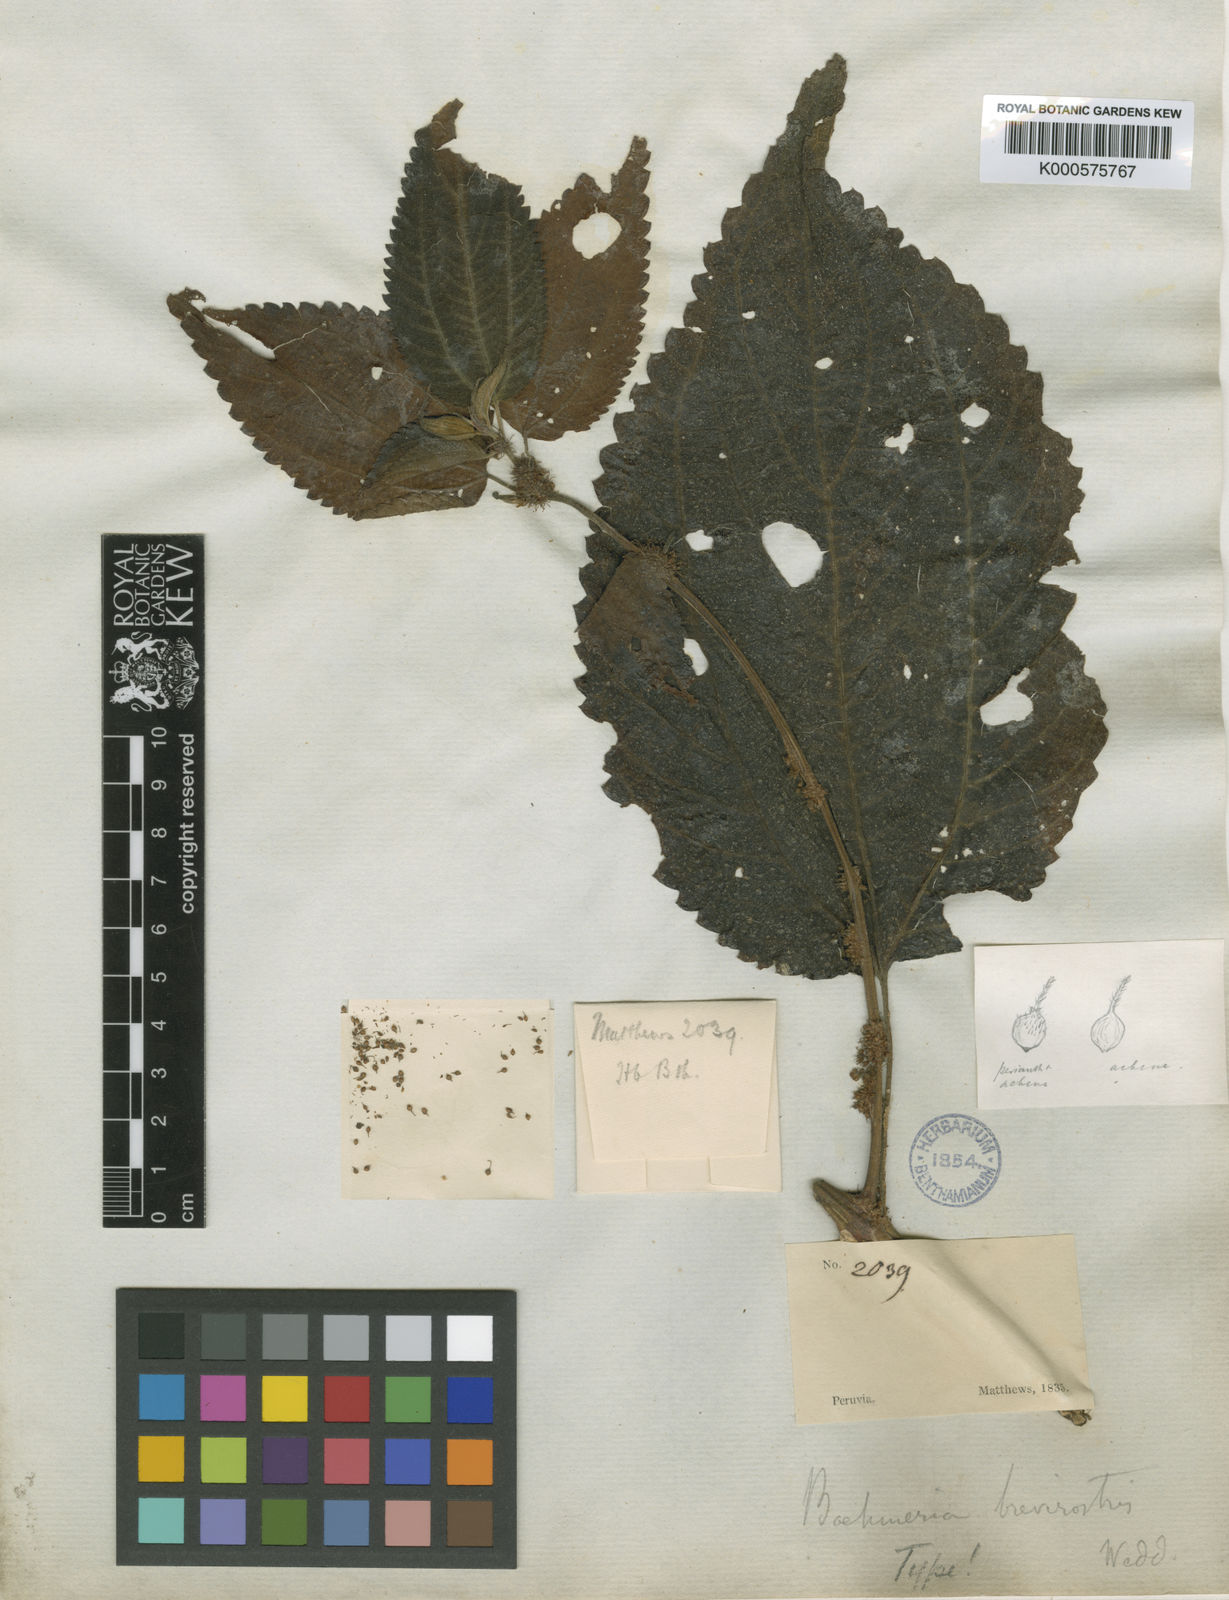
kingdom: Plantae
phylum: Tracheophyta
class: Magnoliopsida
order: Rosales
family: Urticaceae
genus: Boehmeria
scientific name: Boehmeria brevirostris
